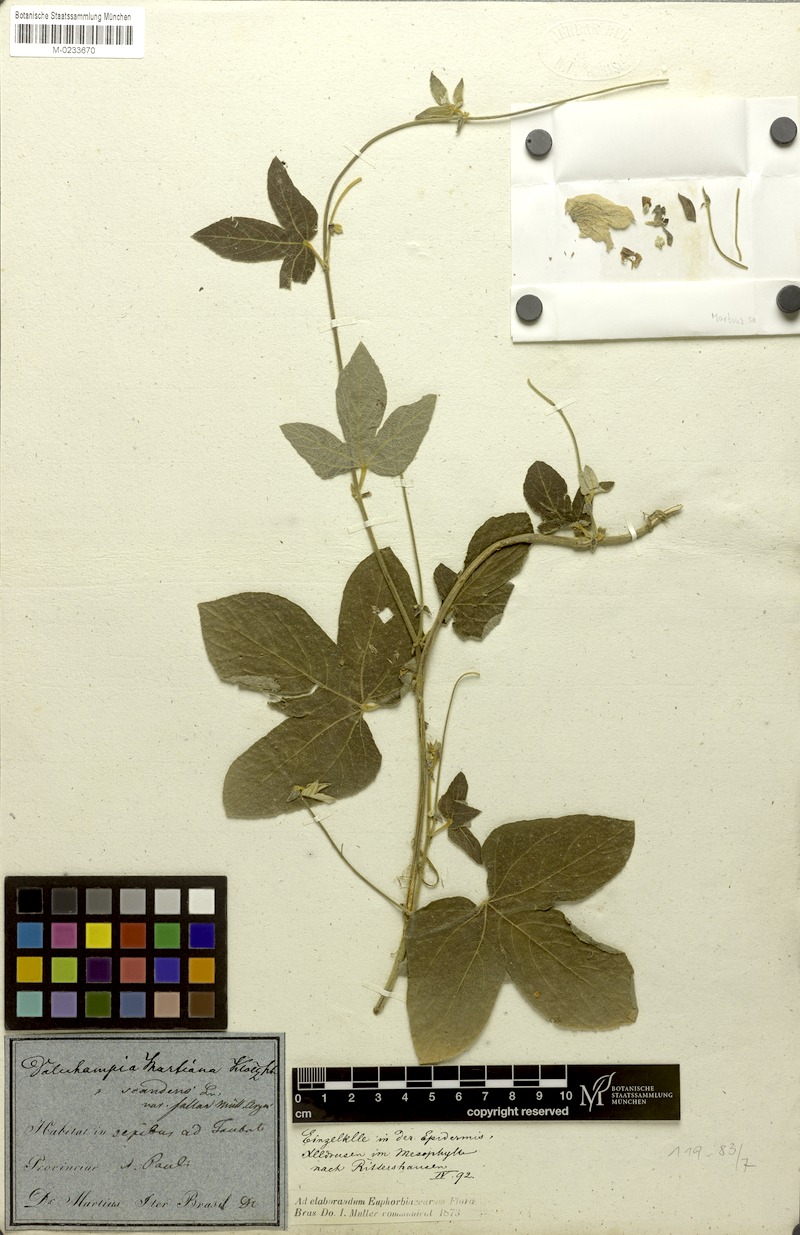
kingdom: Plantae
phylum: Tracheophyta
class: Magnoliopsida
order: Malpighiales
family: Euphorbiaceae
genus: Dalechampia
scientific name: Dalechampia martiana
